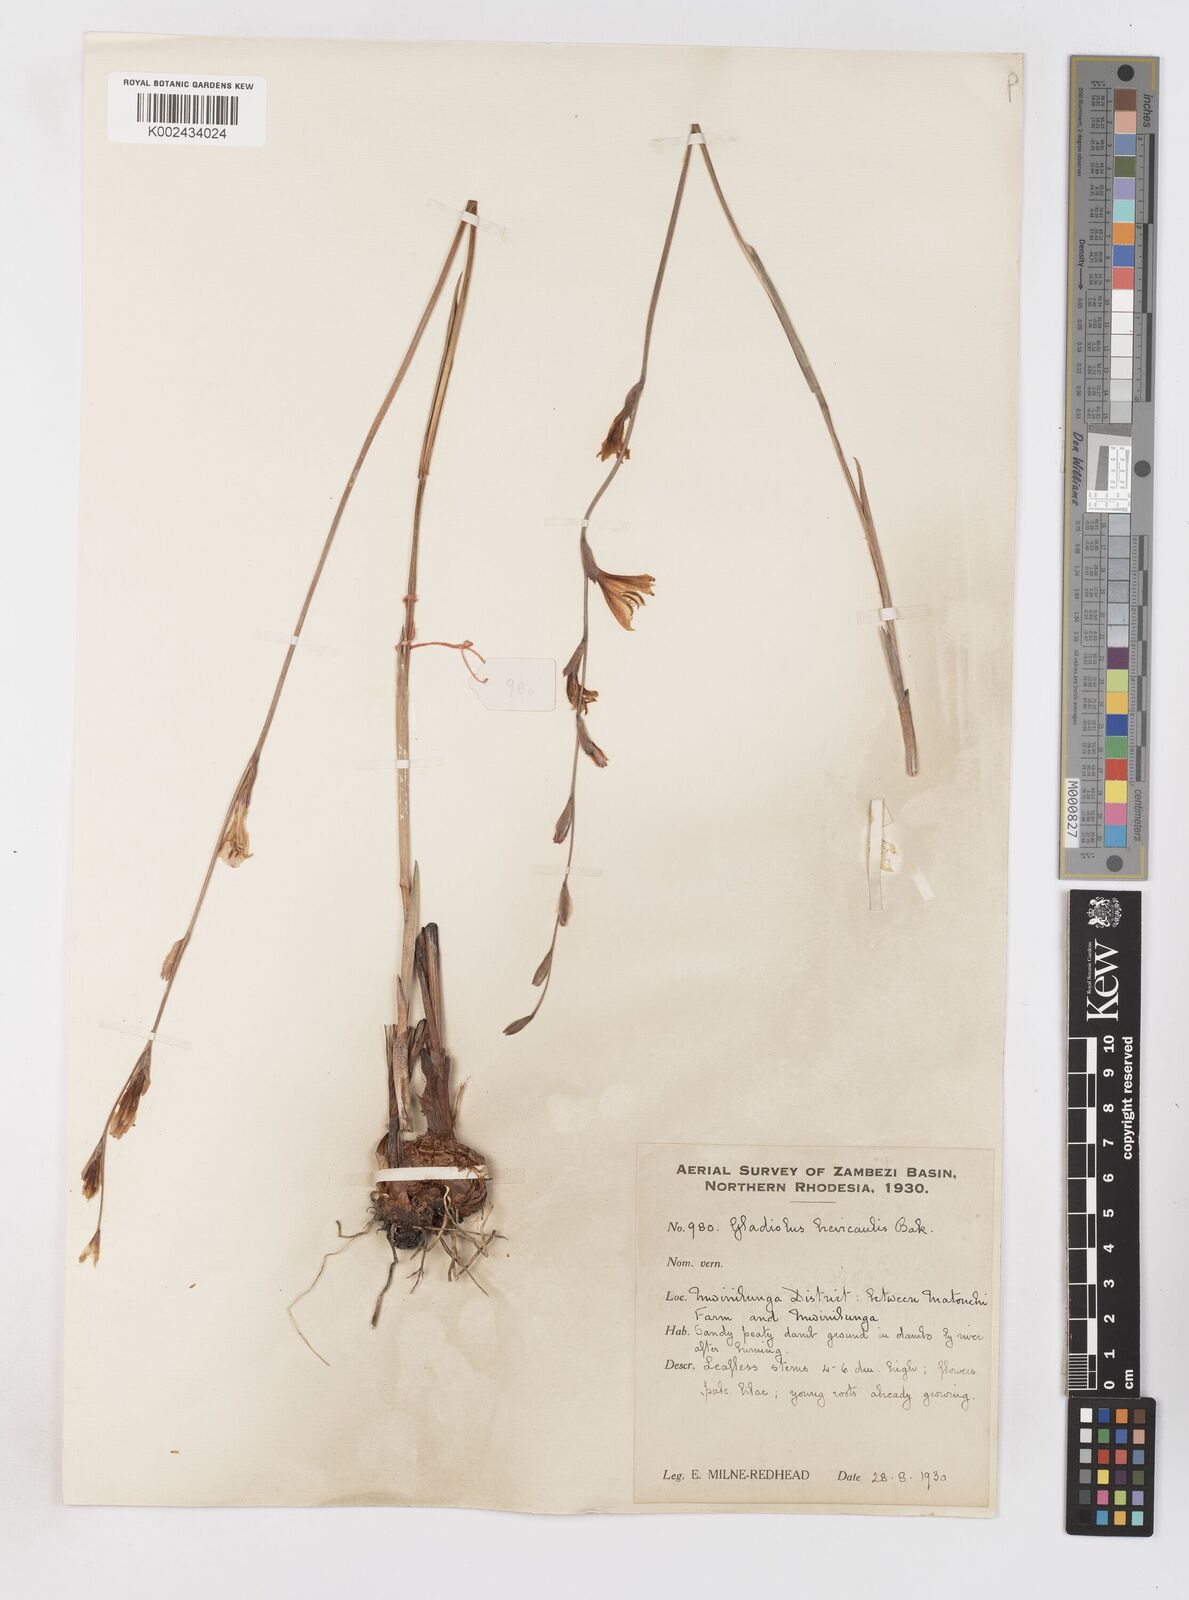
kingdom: Plantae
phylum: Tracheophyta
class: Liliopsida
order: Asparagales
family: Iridaceae
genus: Gladiolus
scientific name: Gladiolus atropurpureus
